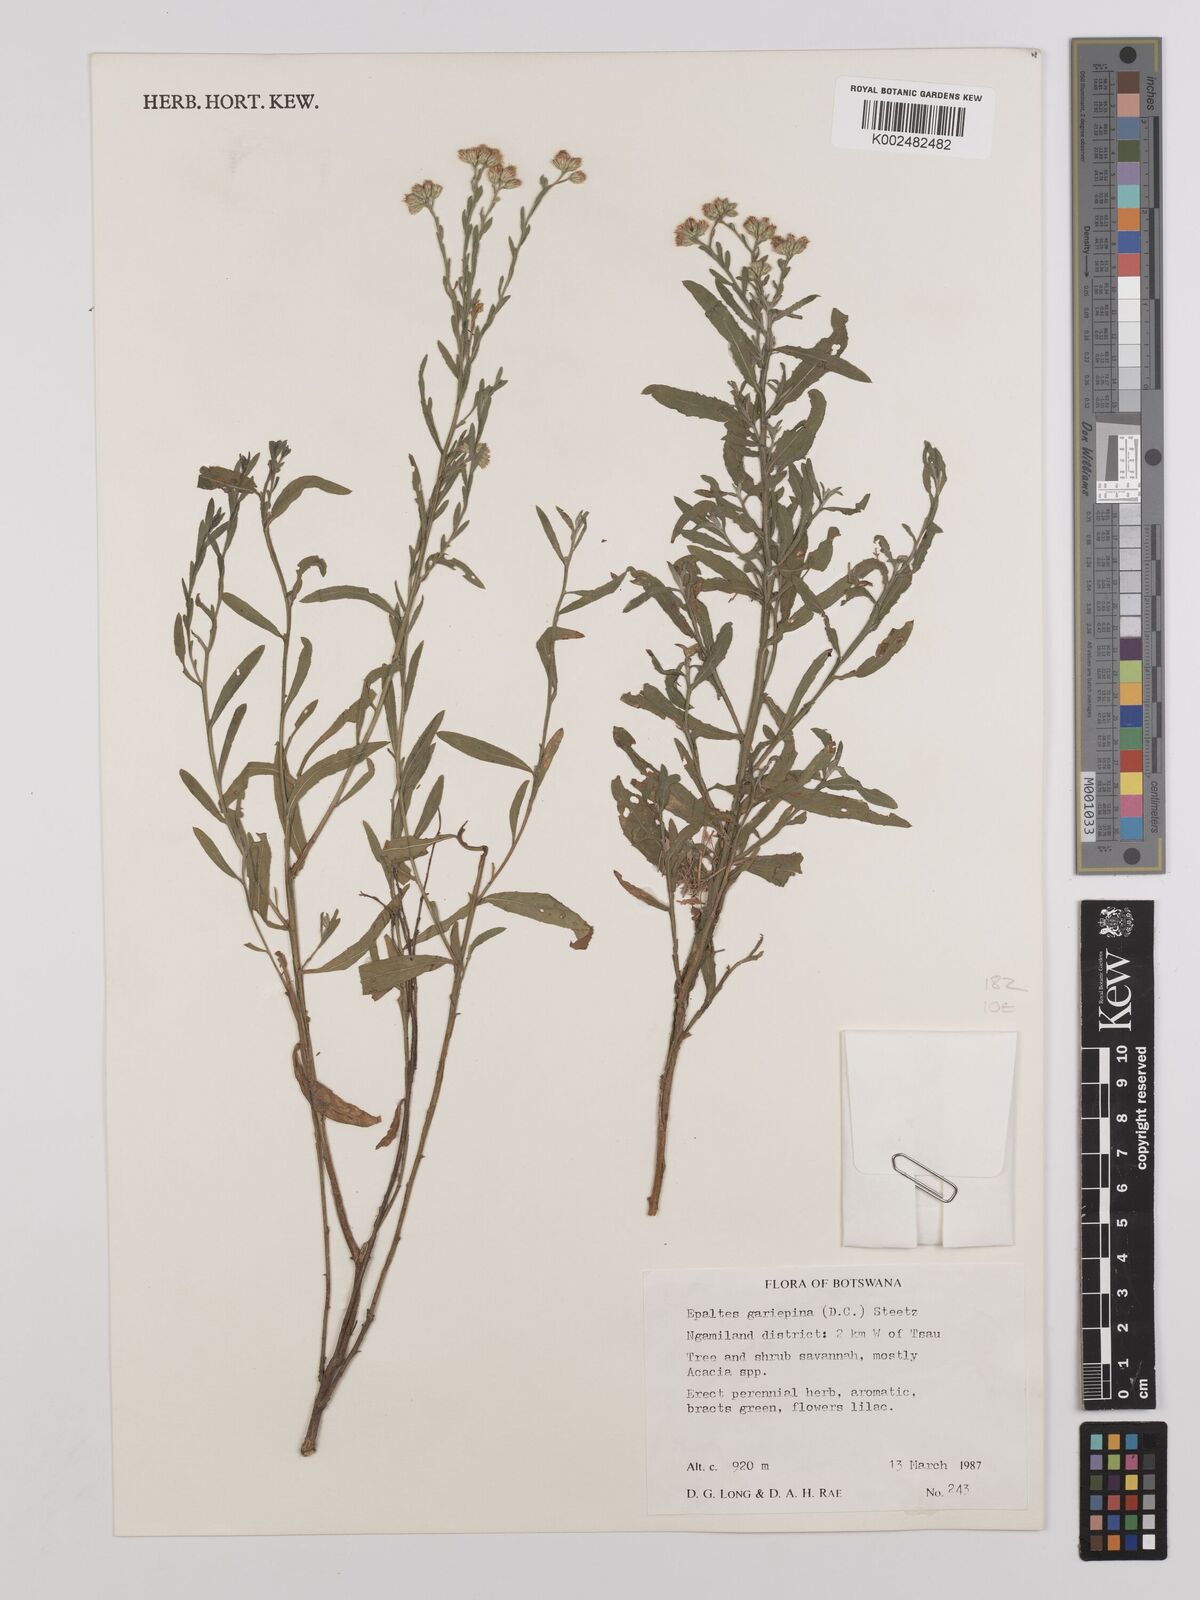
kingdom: Plantae
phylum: Tracheophyta
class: Magnoliopsida
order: Asterales
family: Asteraceae
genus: Litogyne
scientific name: Litogyne gariepina
